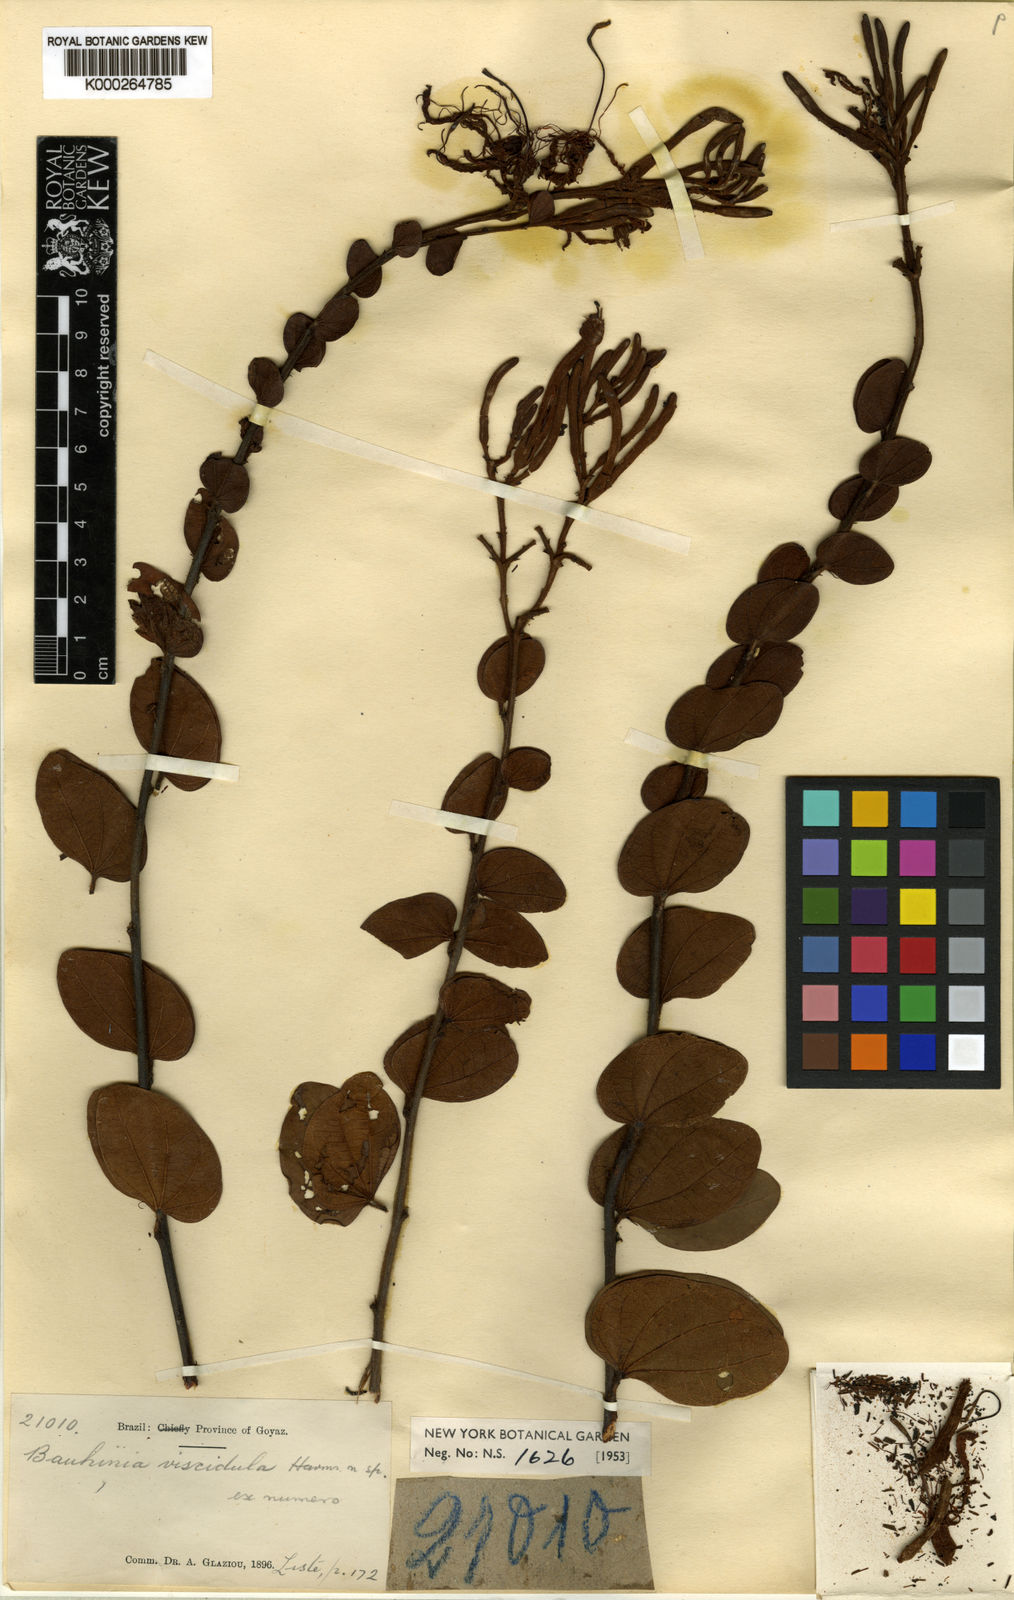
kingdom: Plantae
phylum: Tracheophyta
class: Magnoliopsida
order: Fabales
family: Fabaceae
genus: Bauhinia
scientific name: Bauhinia dumosa
